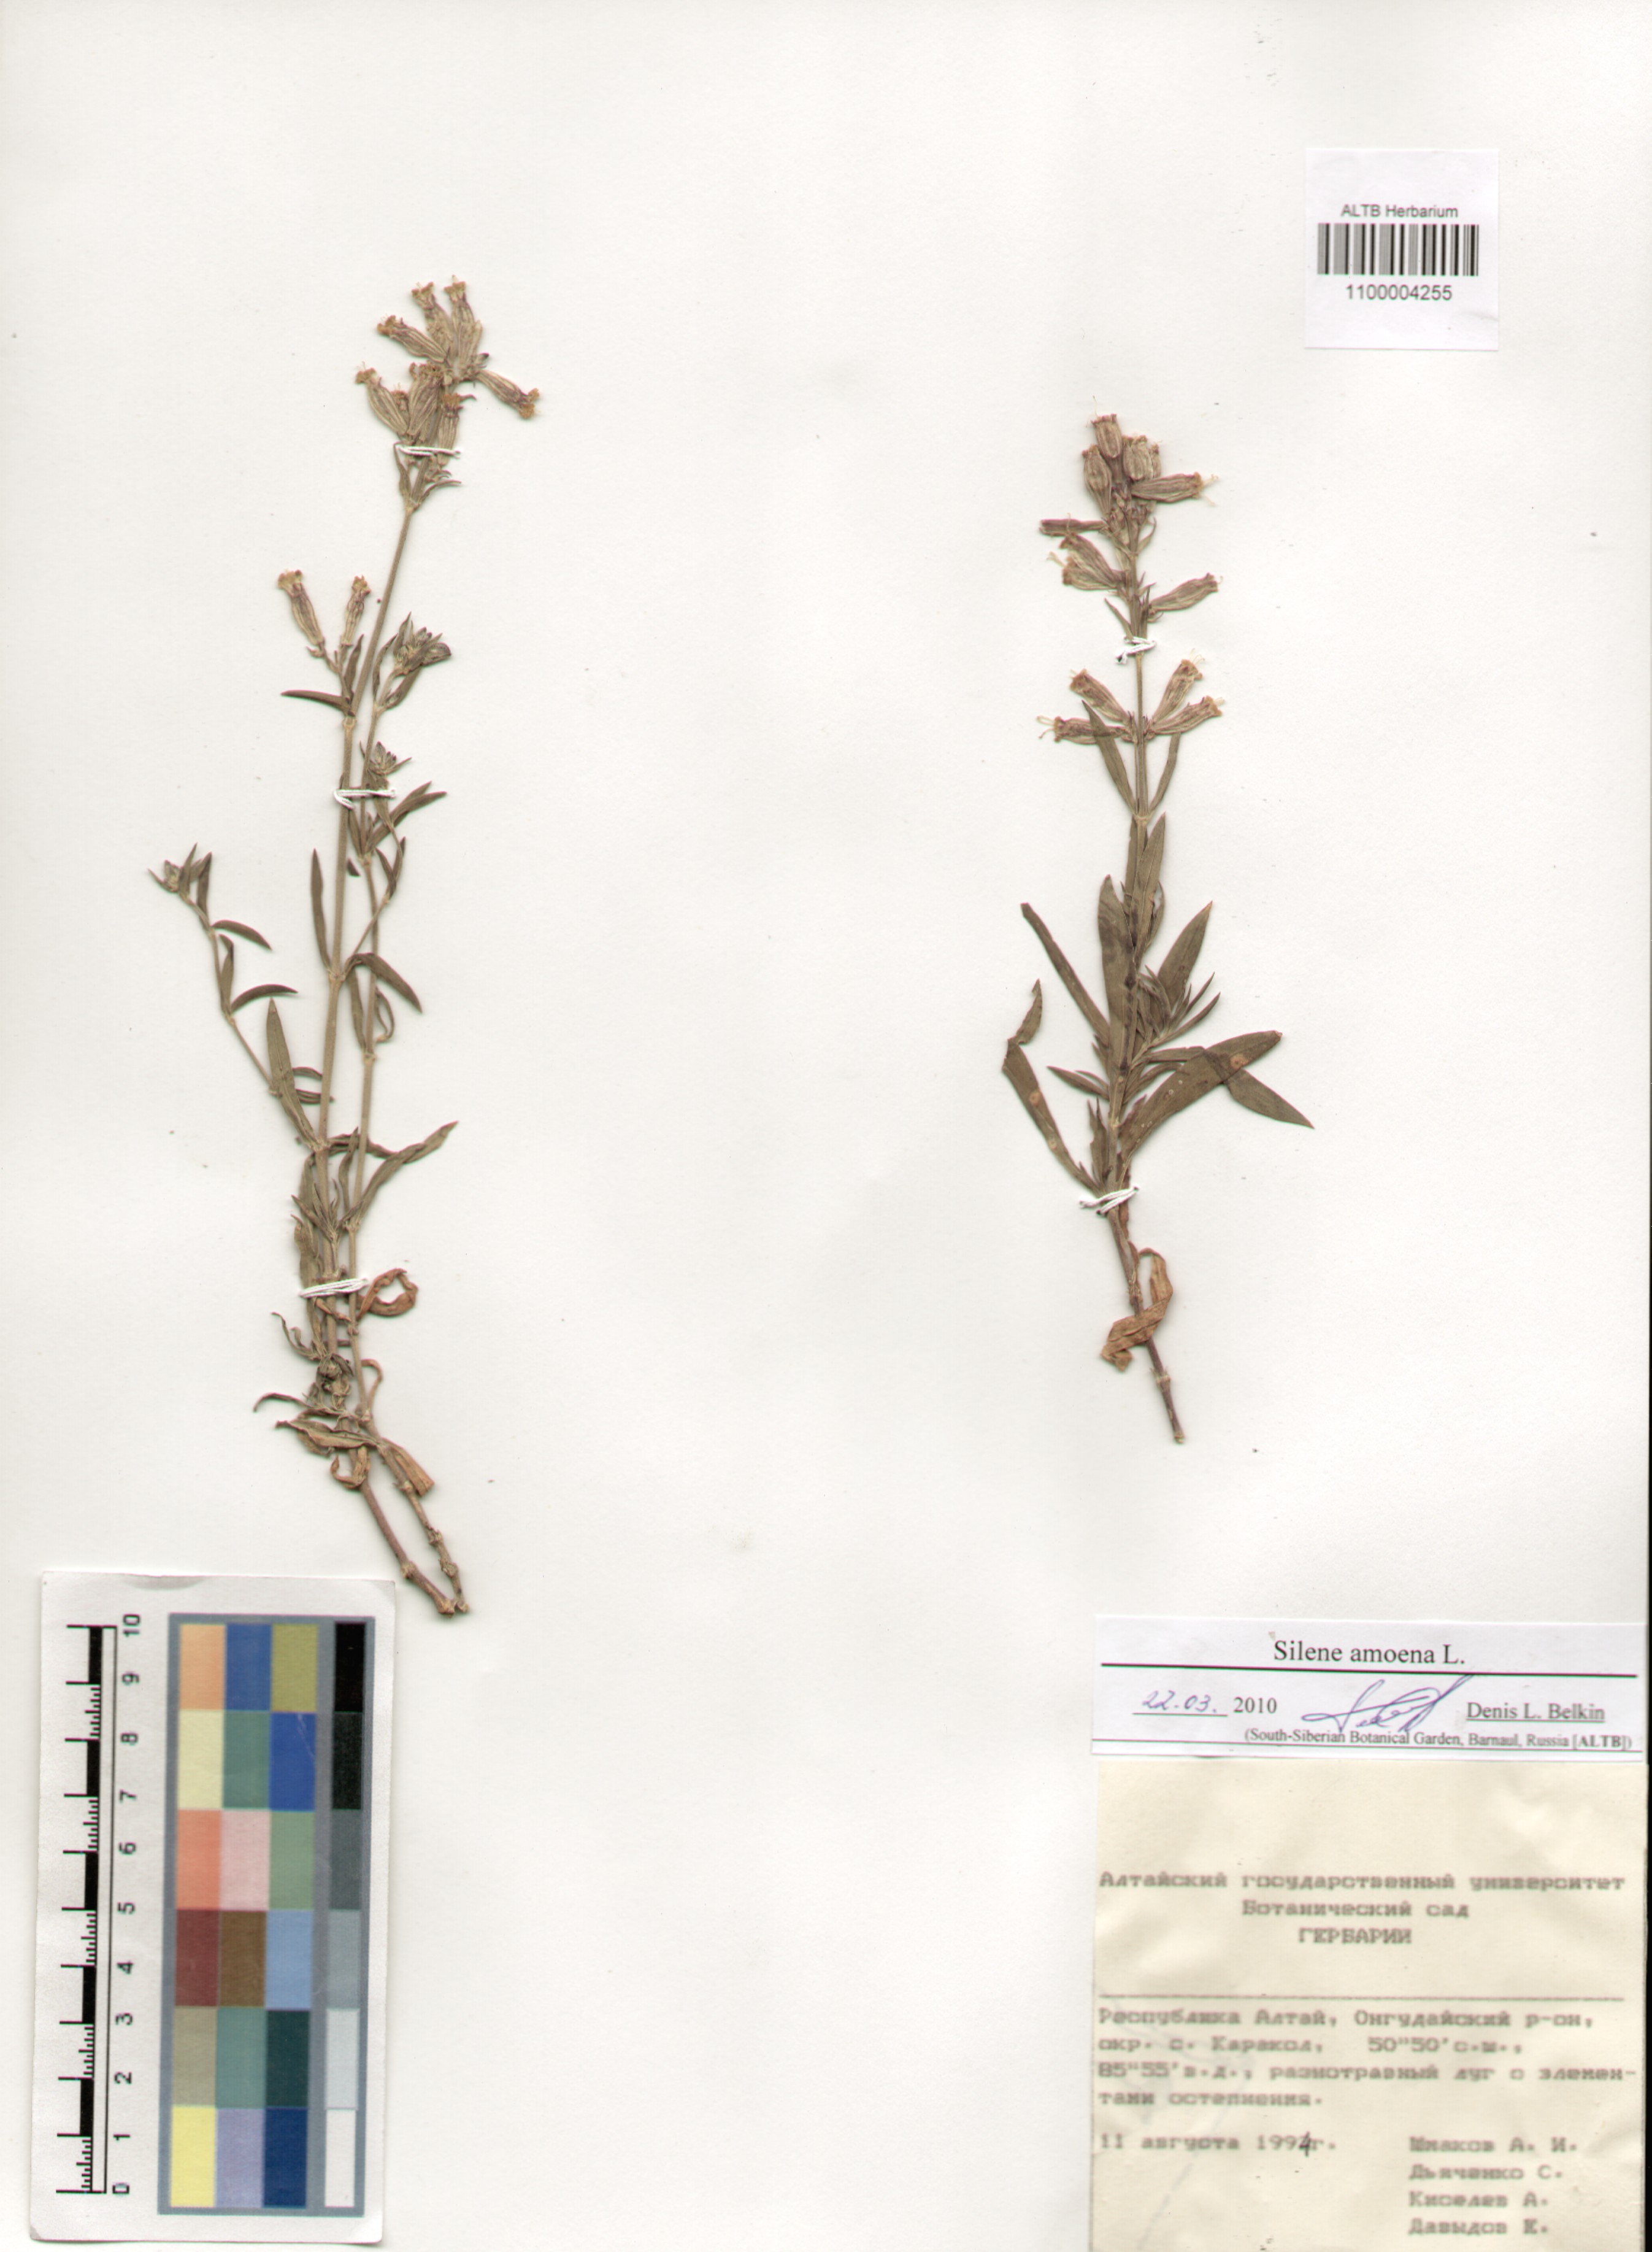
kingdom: Plantae
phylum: Tracheophyta
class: Magnoliopsida
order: Caryophyllales
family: Caryophyllaceae
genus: Silene
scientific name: Silene amoena
